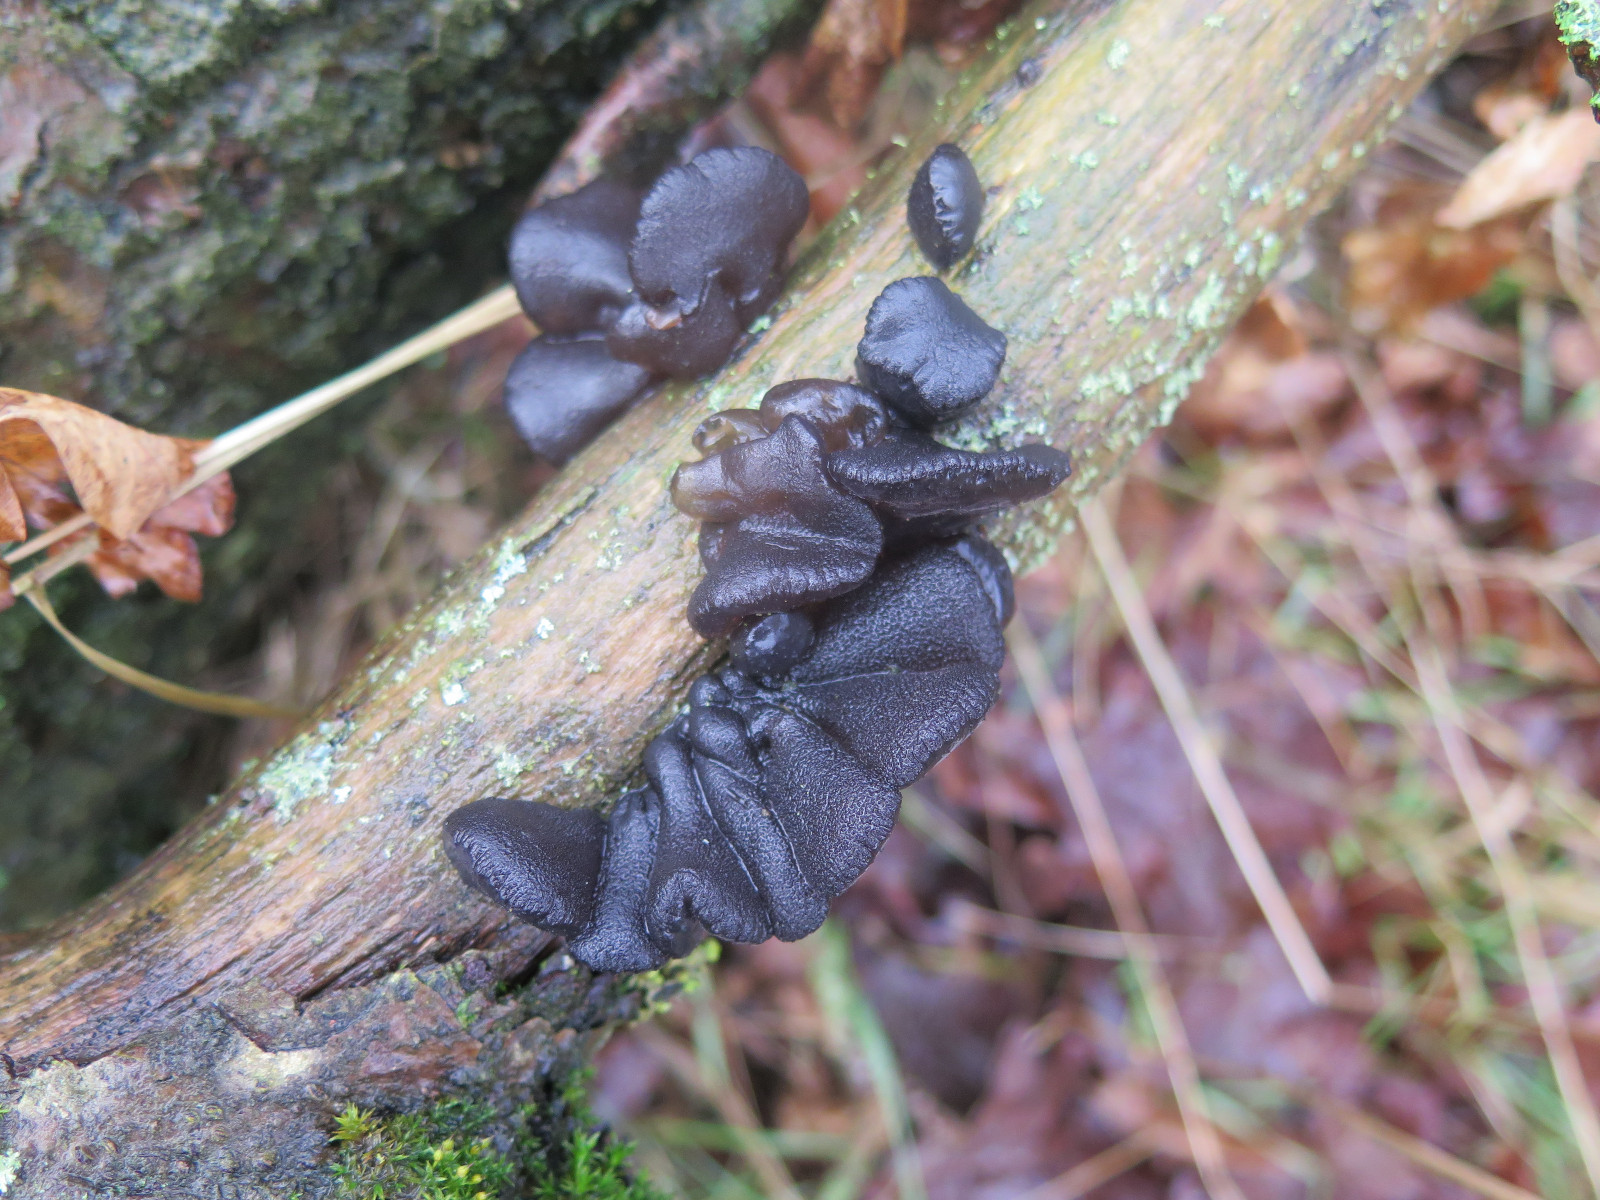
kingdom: Fungi
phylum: Basidiomycota
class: Agaricomycetes
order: Auriculariales
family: Auriculariaceae
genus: Exidia
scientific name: Exidia glandulosa
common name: ege-bævretop
